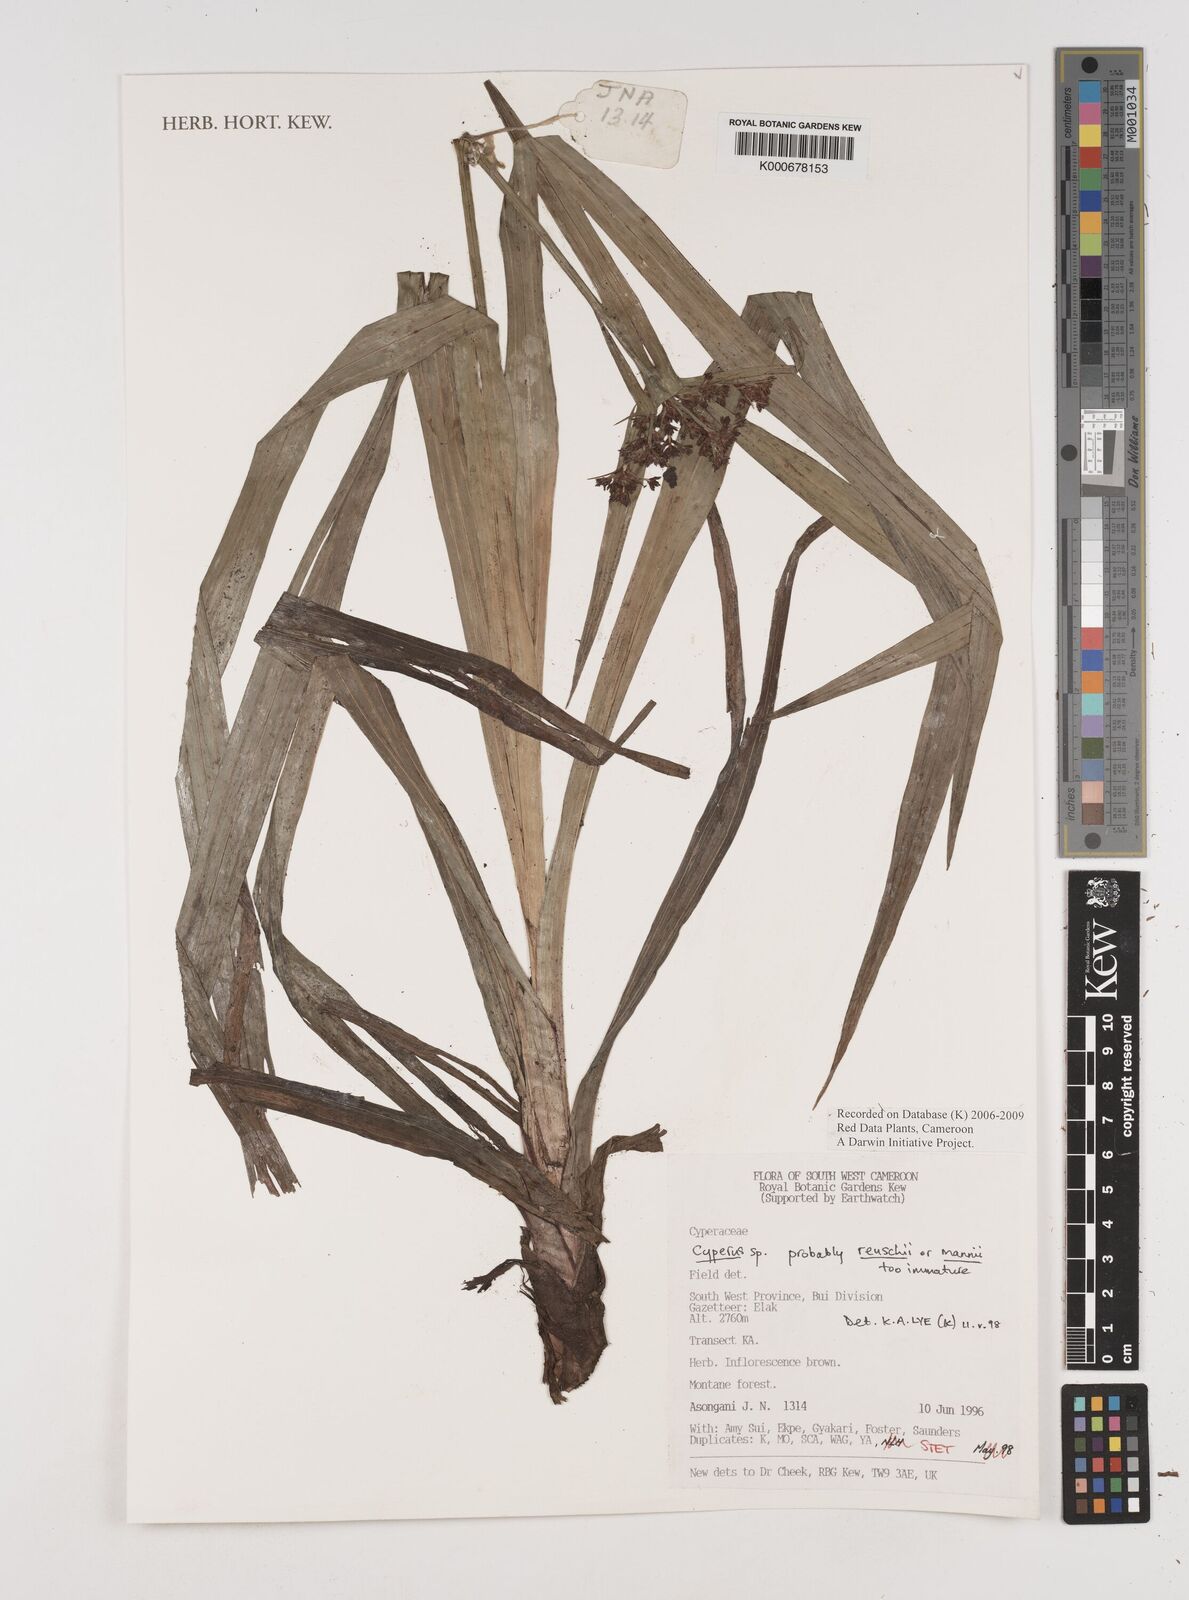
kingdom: Plantae
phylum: Tracheophyta
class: Liliopsida
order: Poales
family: Cyperaceae
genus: Cyperus
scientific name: Cyperus
